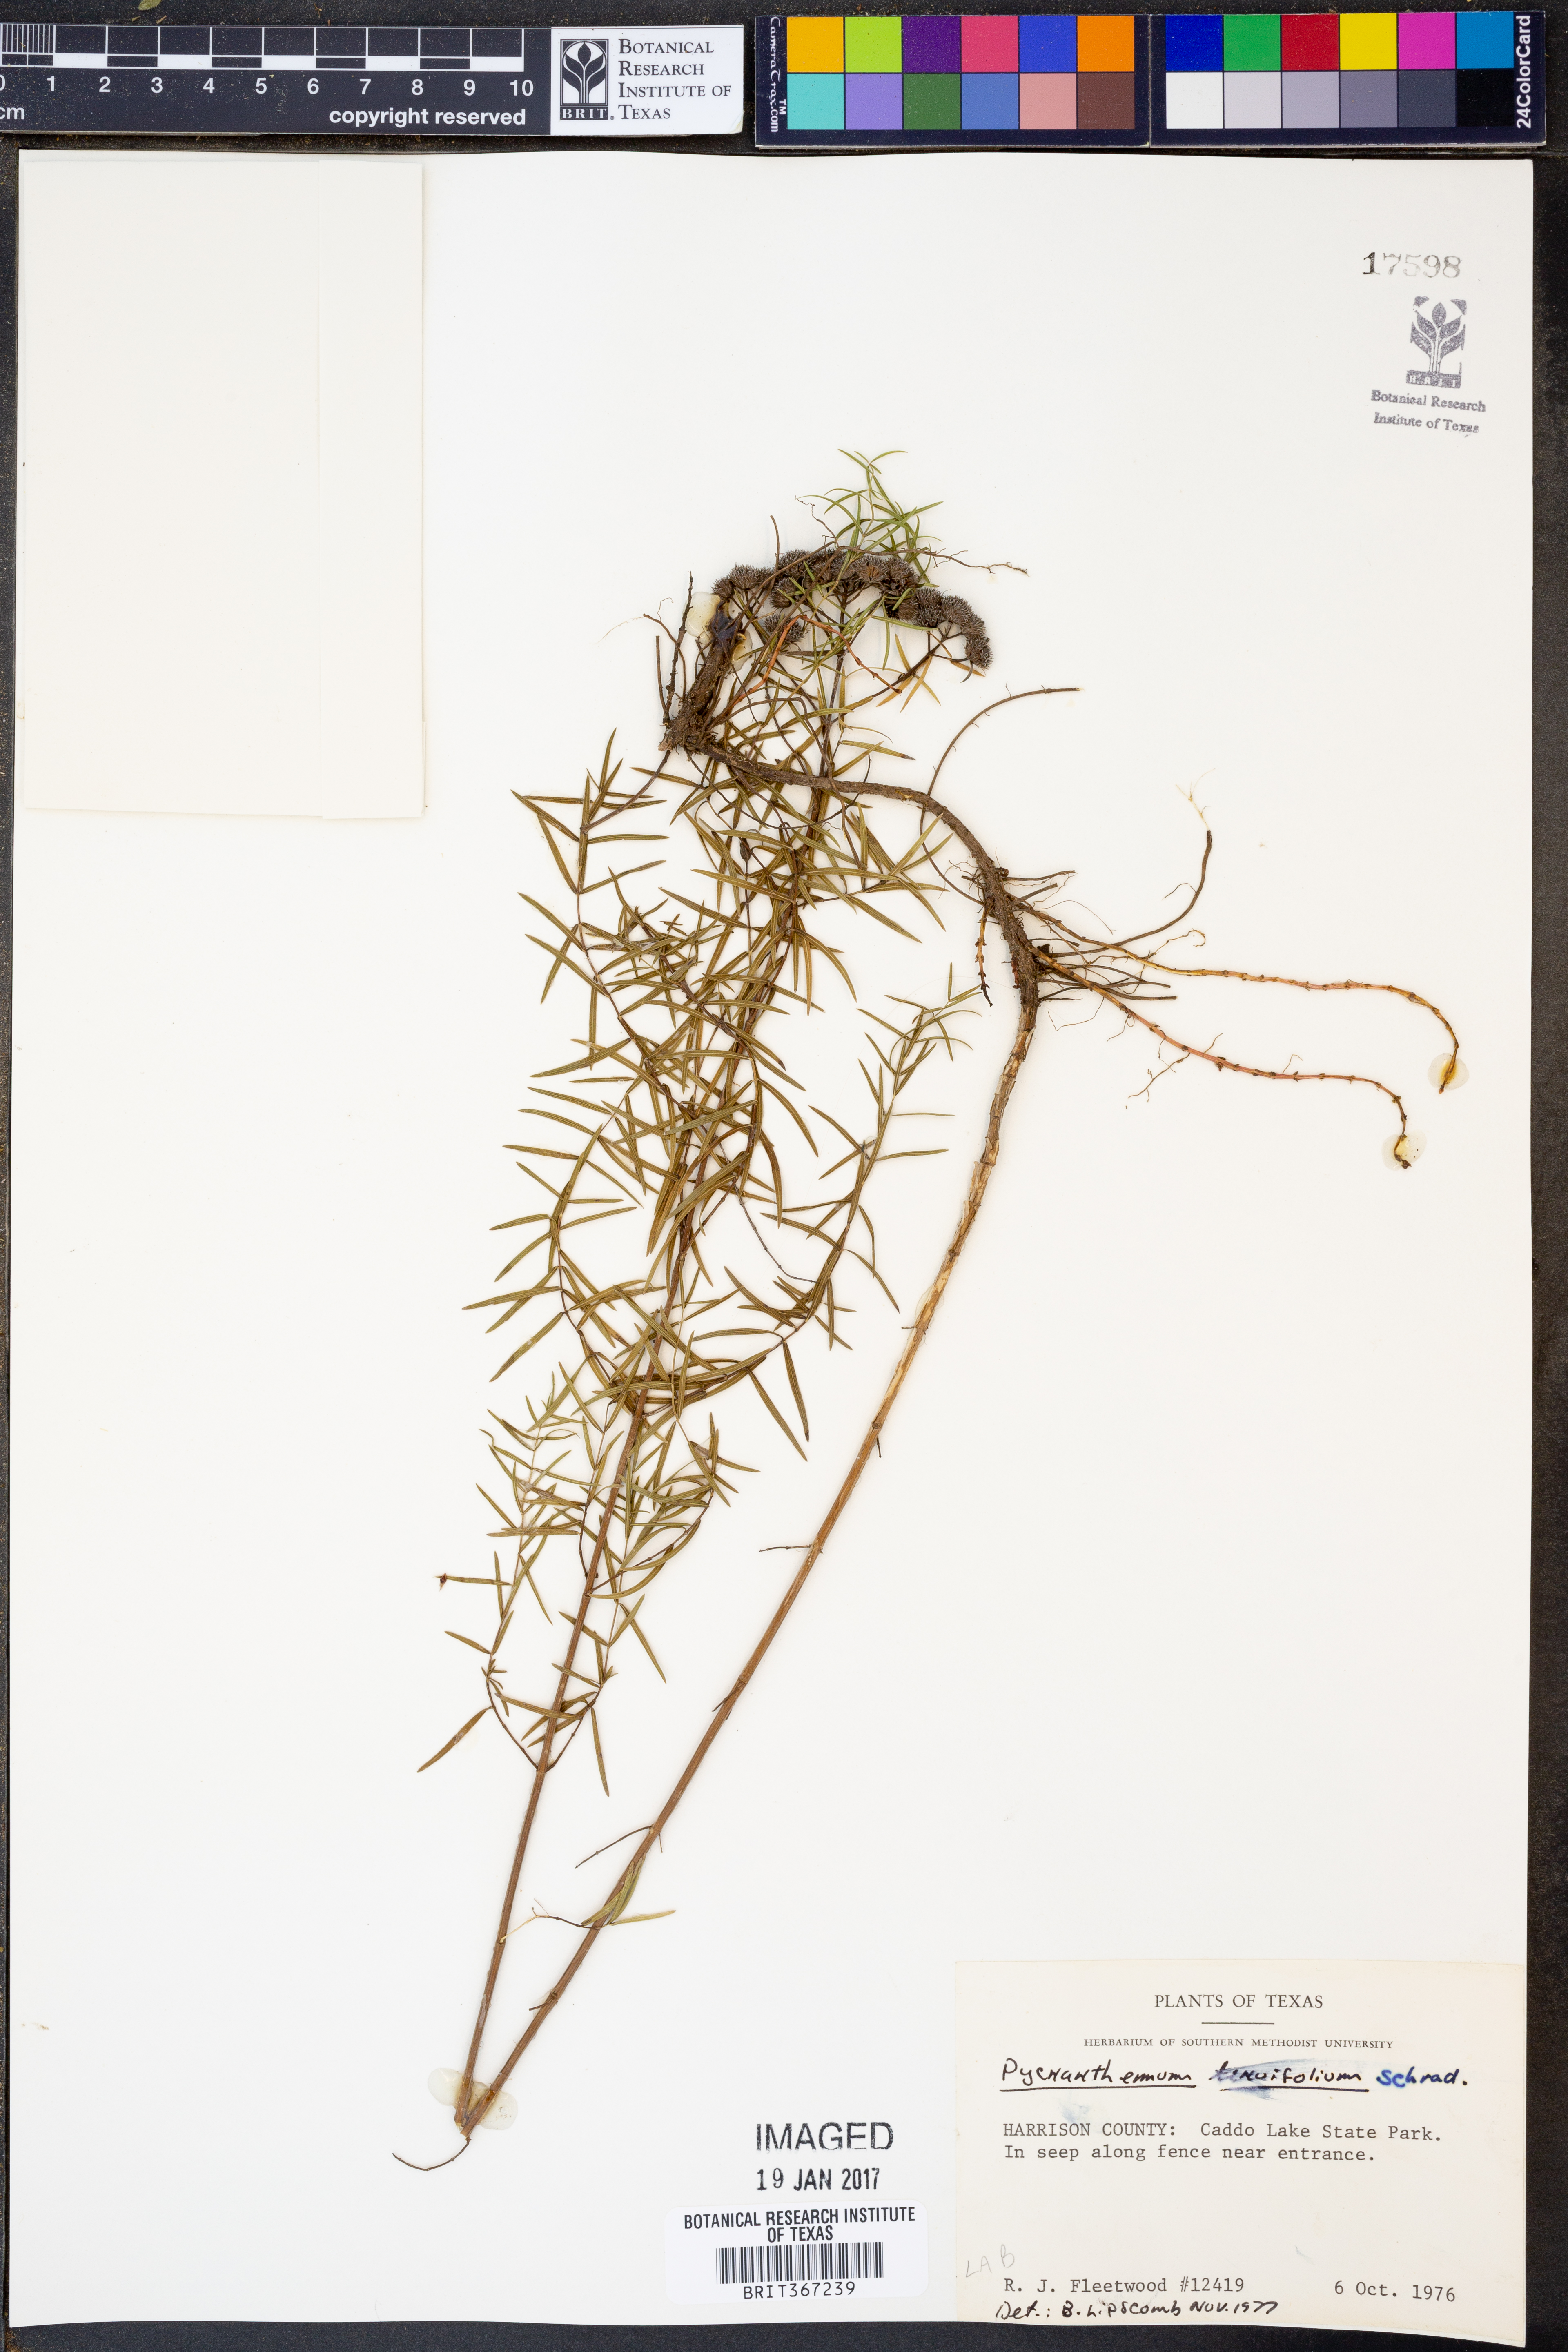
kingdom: Plantae
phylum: Tracheophyta
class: Magnoliopsida
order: Lamiales
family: Lamiaceae
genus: Pycnanthemum
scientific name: Pycnanthemum tenuifolium
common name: Narrow-leaf mountain-mint
